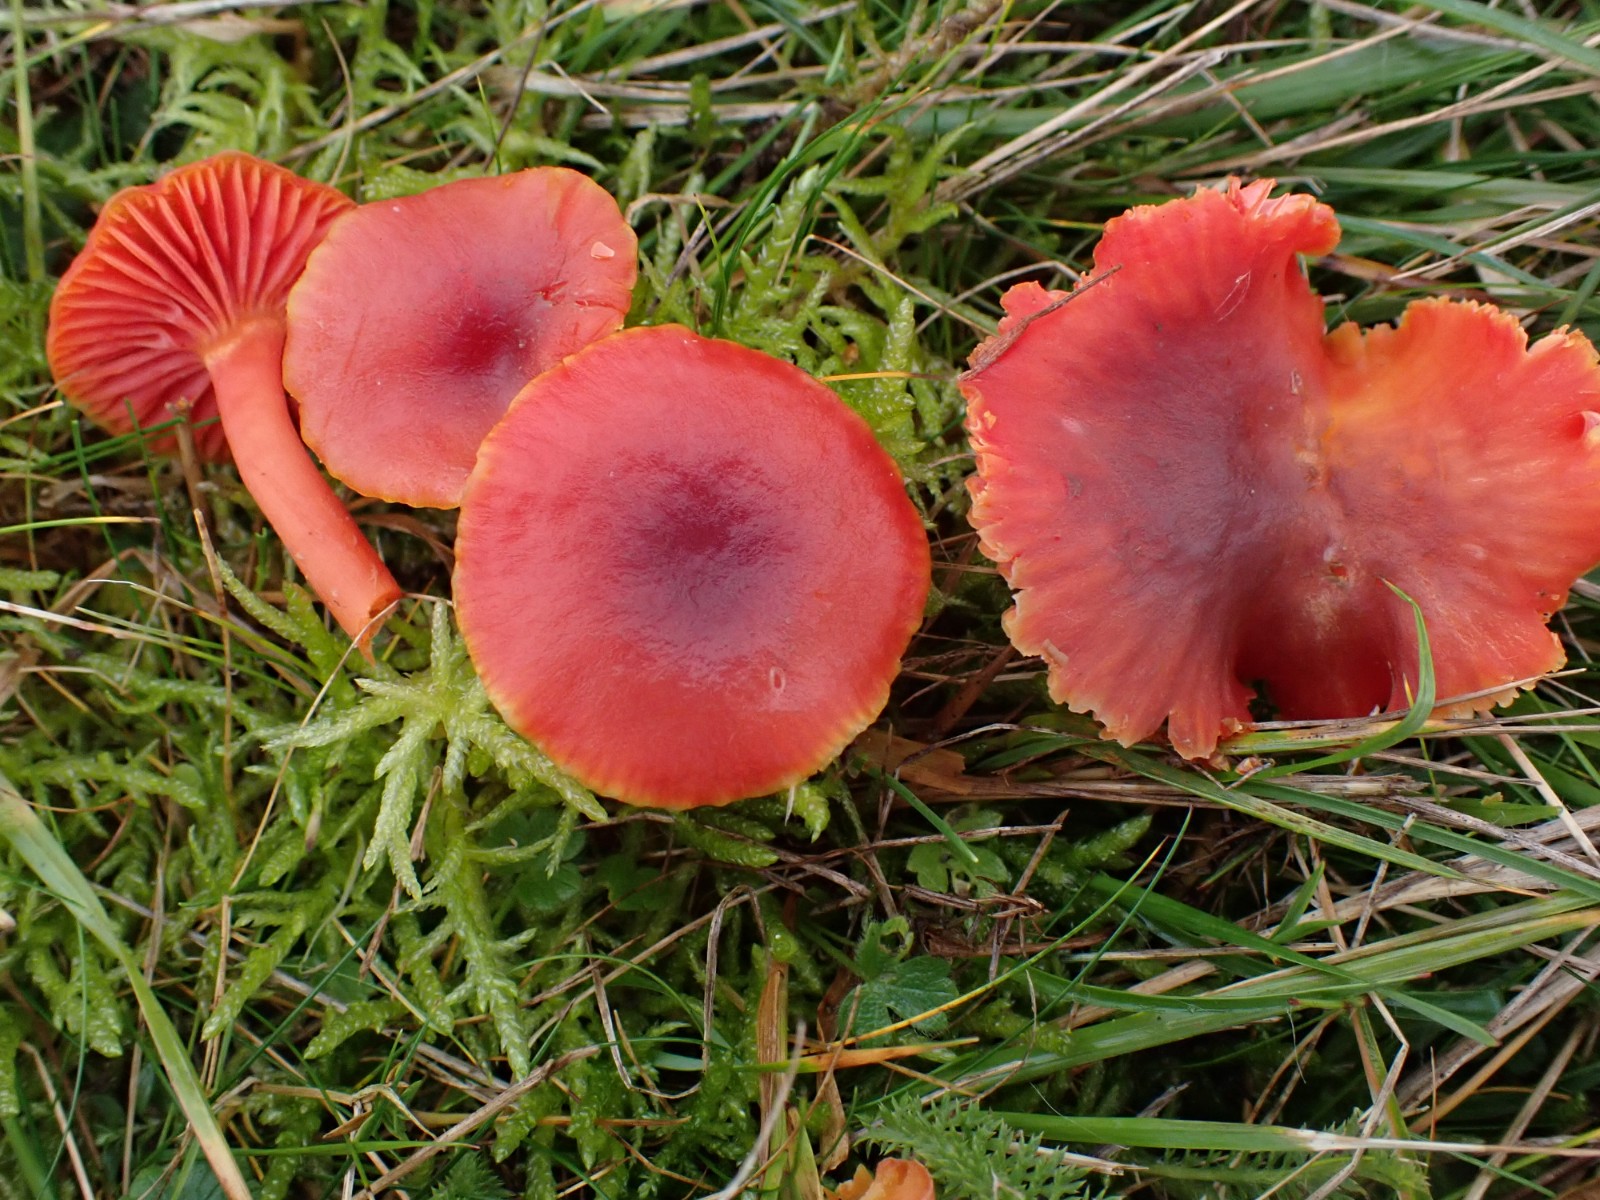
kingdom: Fungi
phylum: Basidiomycota
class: Agaricomycetes
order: Agaricales
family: Hygrophoraceae
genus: Hygrocybe
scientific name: Hygrocybe phaeococcinea
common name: sortdugget vokshat
